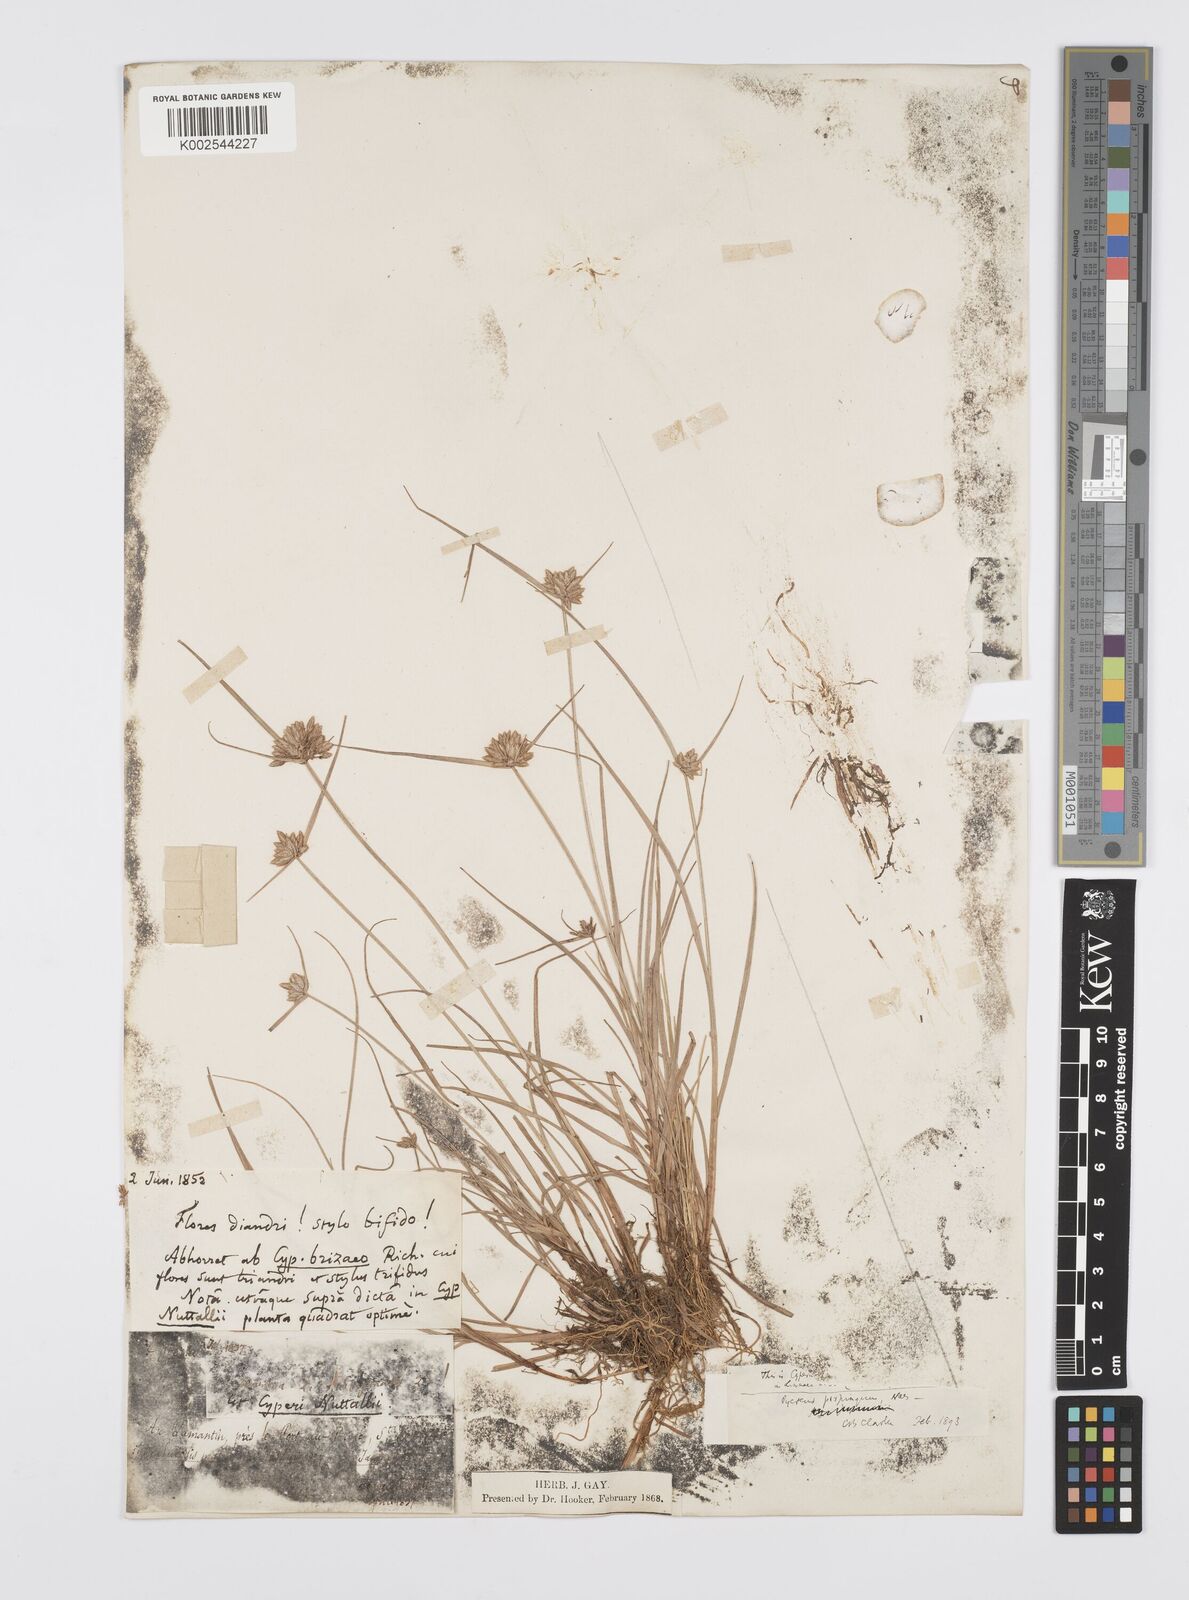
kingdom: Plantae
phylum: Tracheophyta
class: Liliopsida
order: Poales
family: Cyperaceae
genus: Cyperus
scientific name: Cyperus
